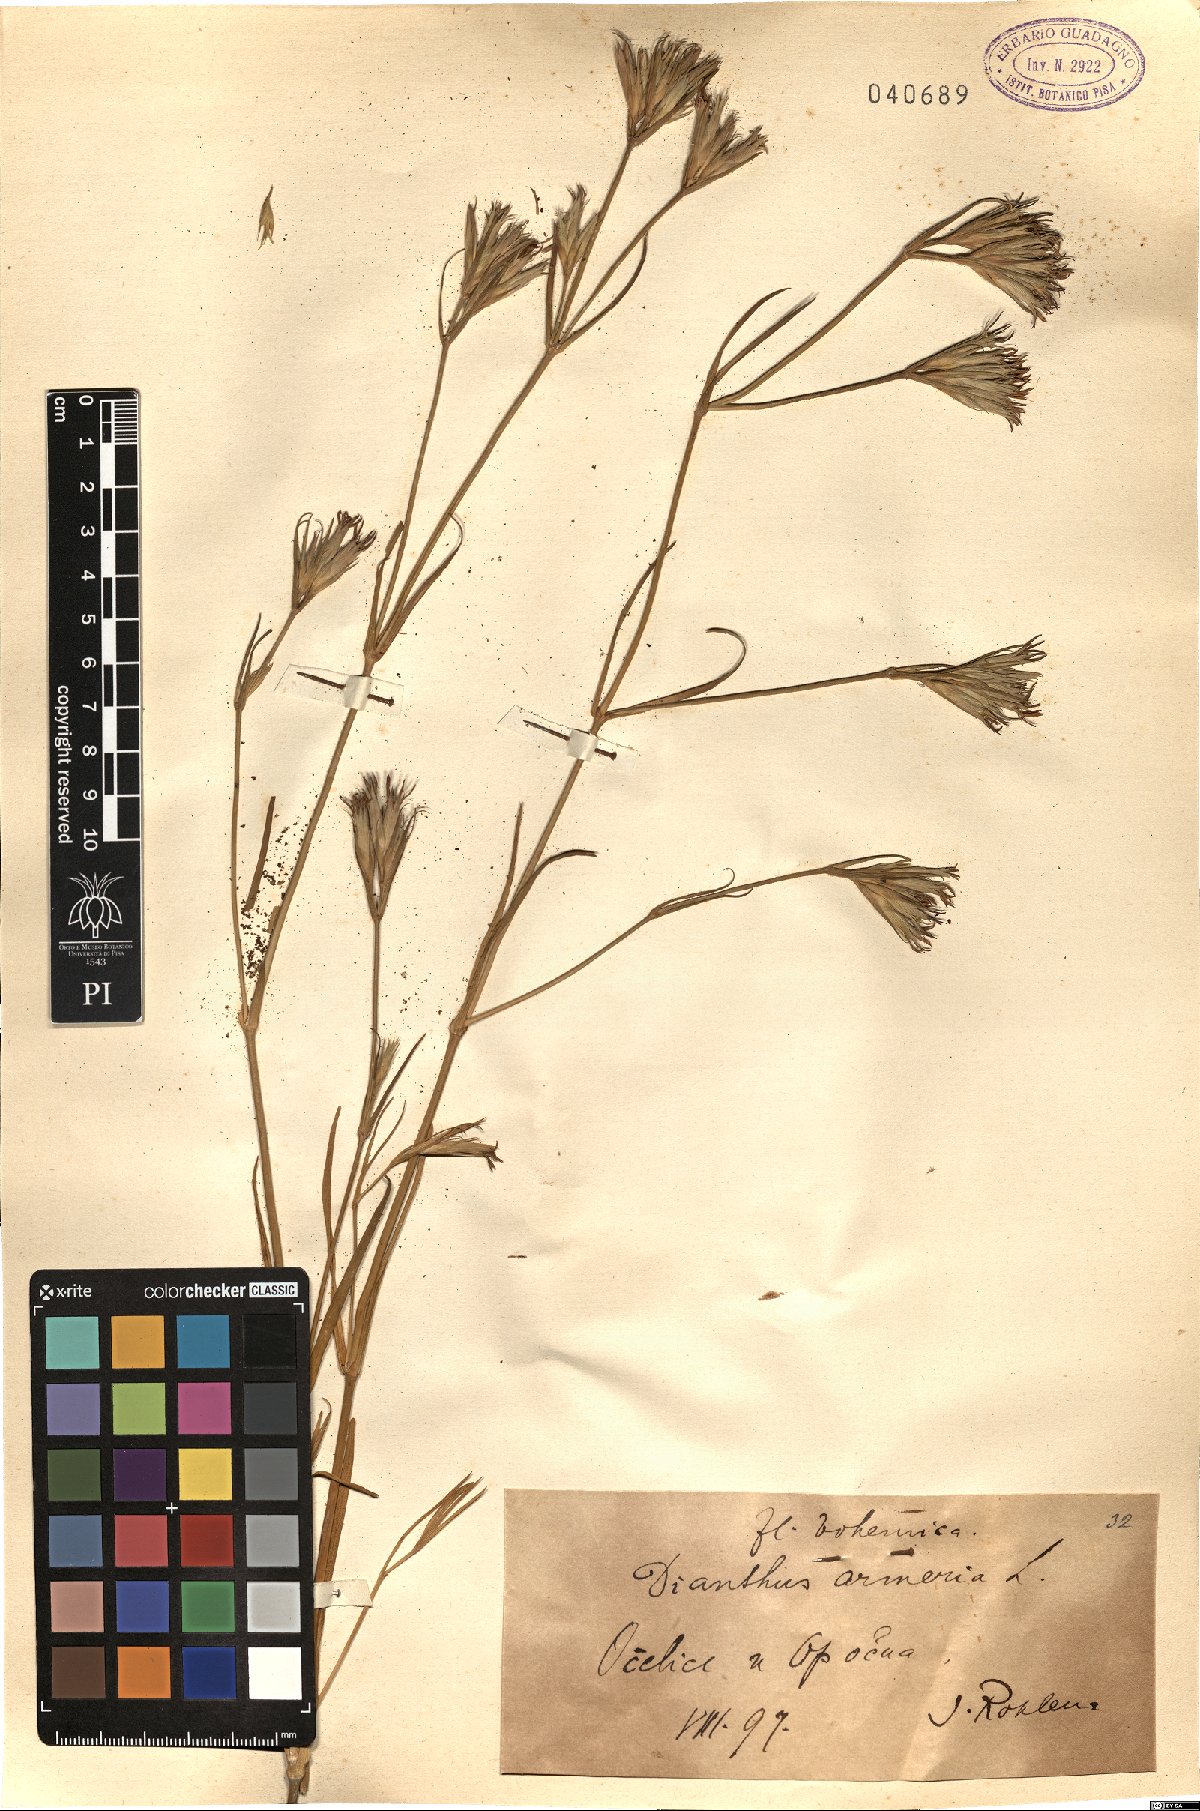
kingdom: Plantae
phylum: Tracheophyta
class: Magnoliopsida
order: Caryophyllales
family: Caryophyllaceae
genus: Dianthus
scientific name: Dianthus armeria
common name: Deptford pink
